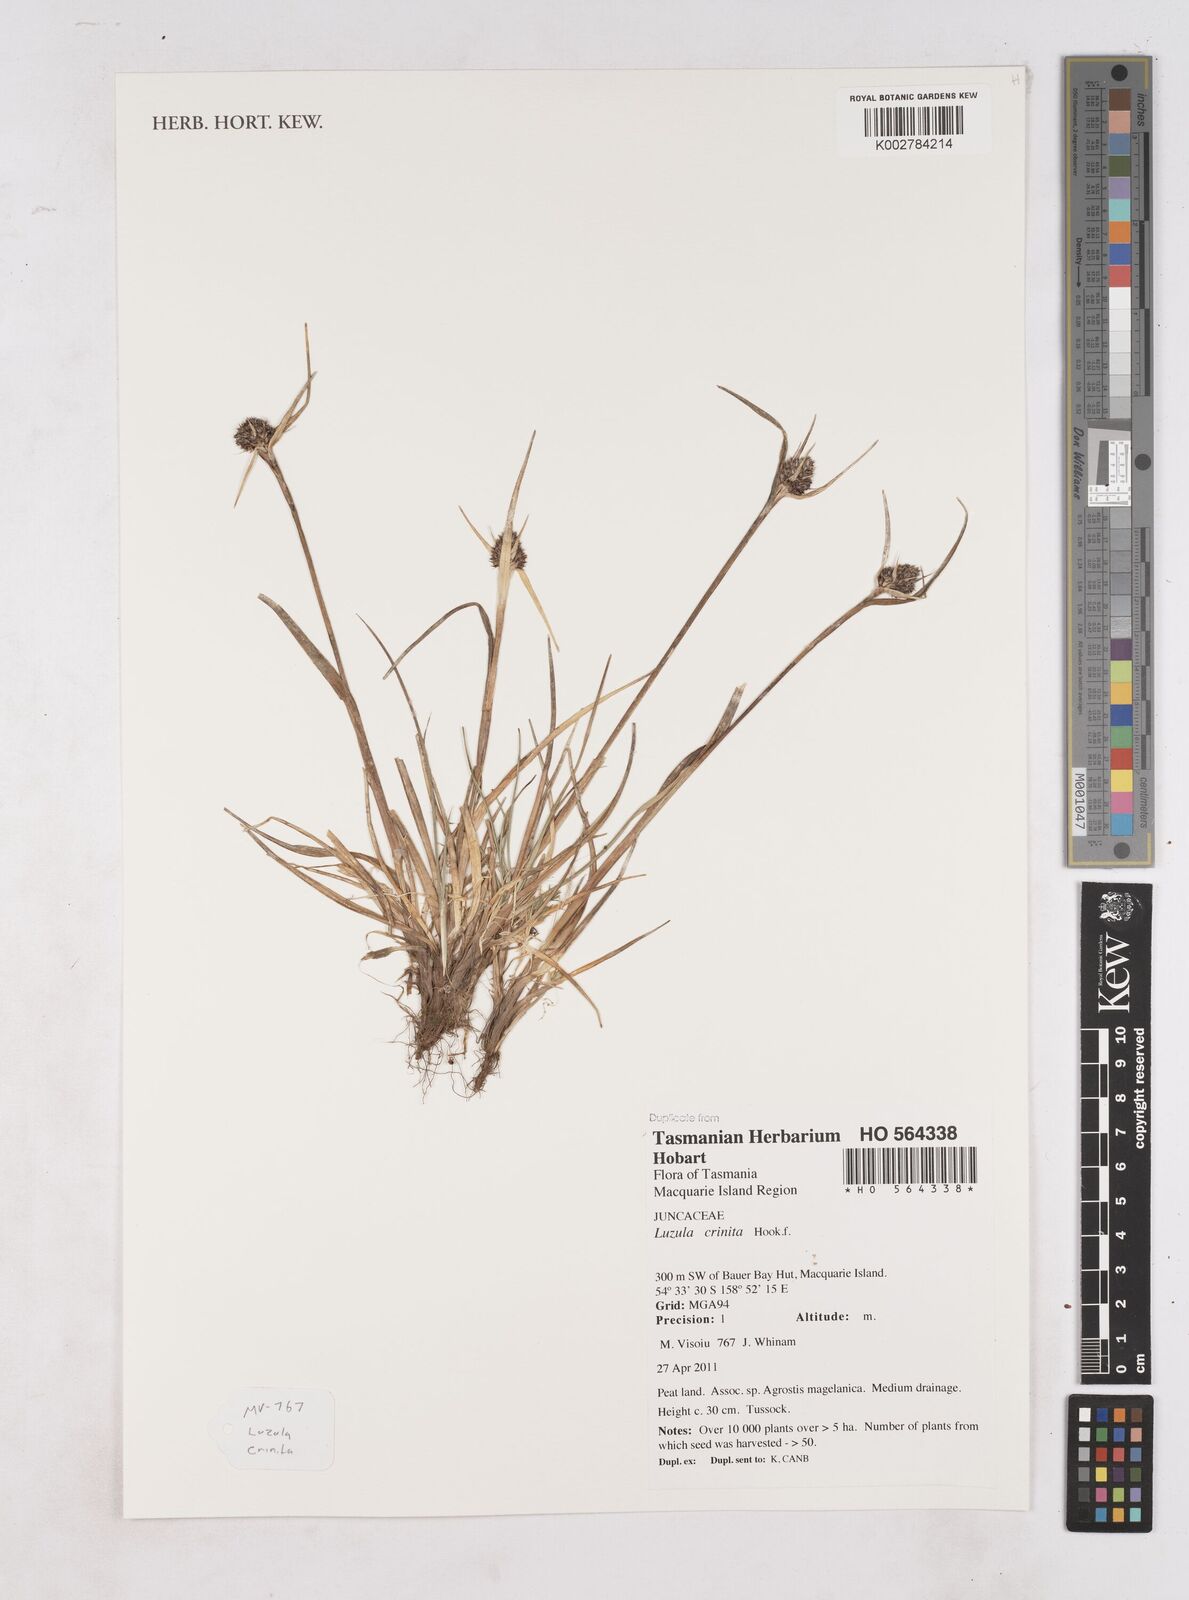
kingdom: Plantae
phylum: Tracheophyta
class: Liliopsida
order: Poales
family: Juncaceae
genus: Luzula
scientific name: Luzula crinita
